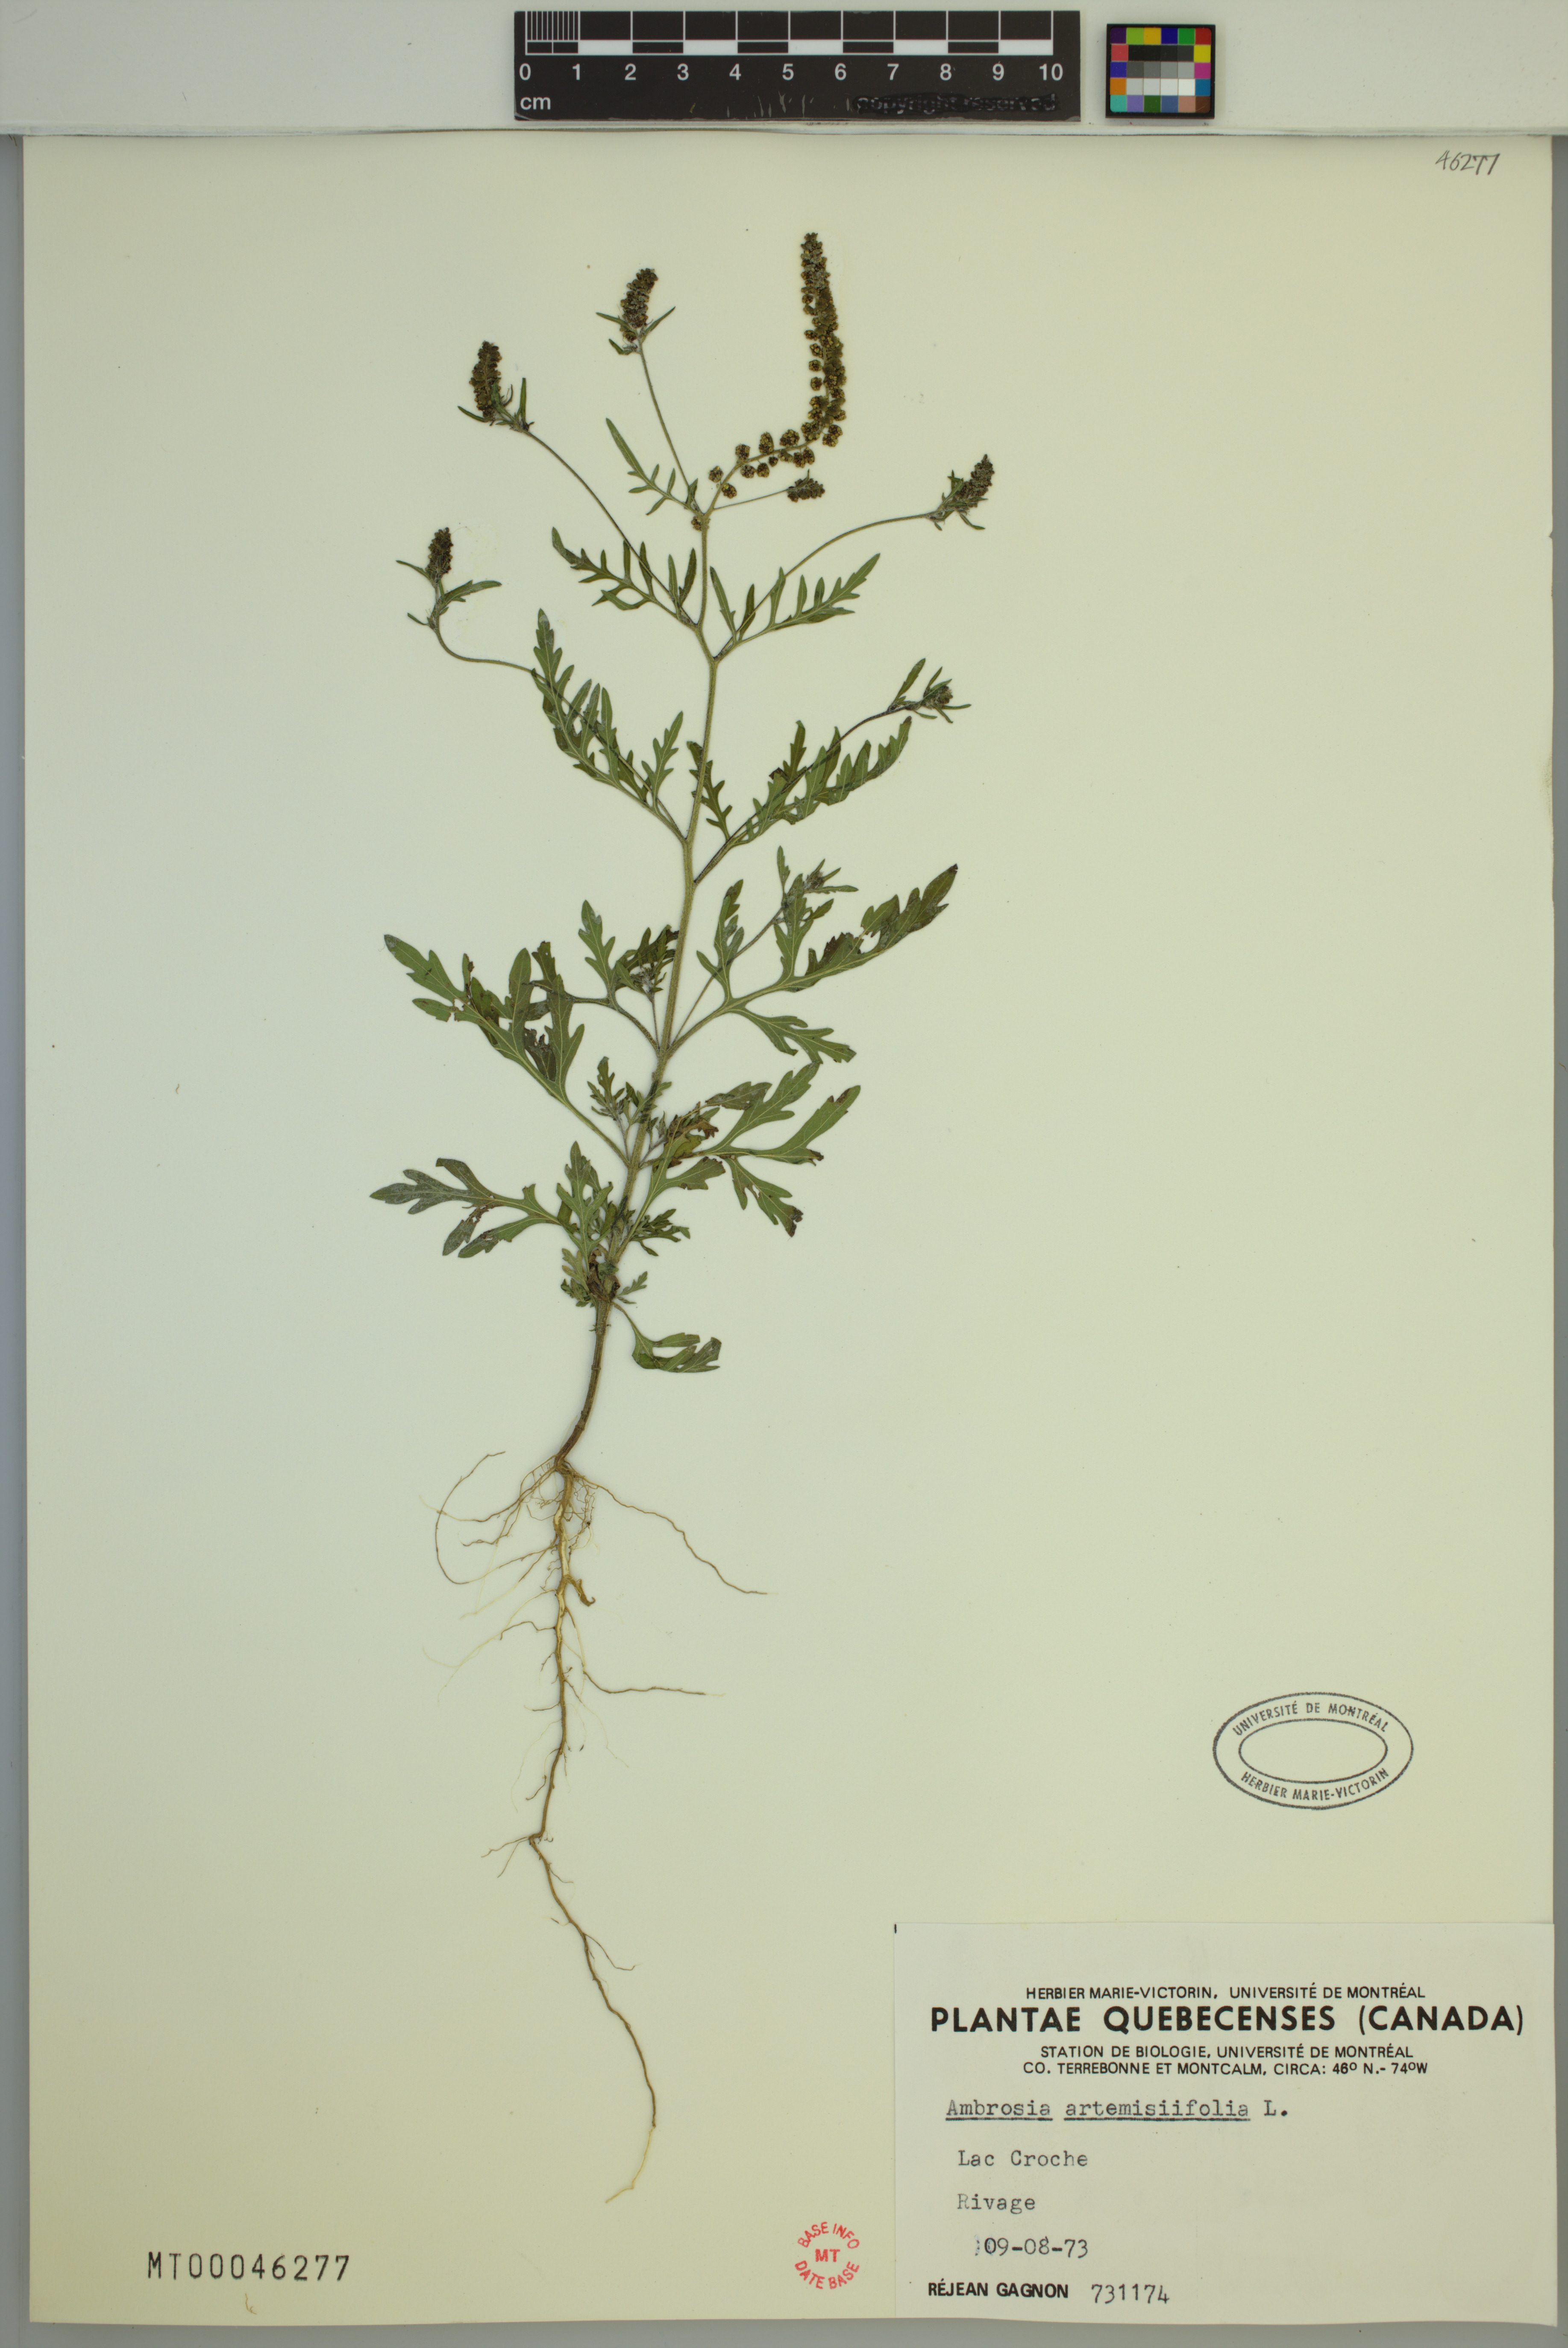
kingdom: Plantae
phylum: Tracheophyta
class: Magnoliopsida
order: Asterales
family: Asteraceae
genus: Ambrosia
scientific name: Ambrosia artemisiifolia
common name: Annual ragweed
